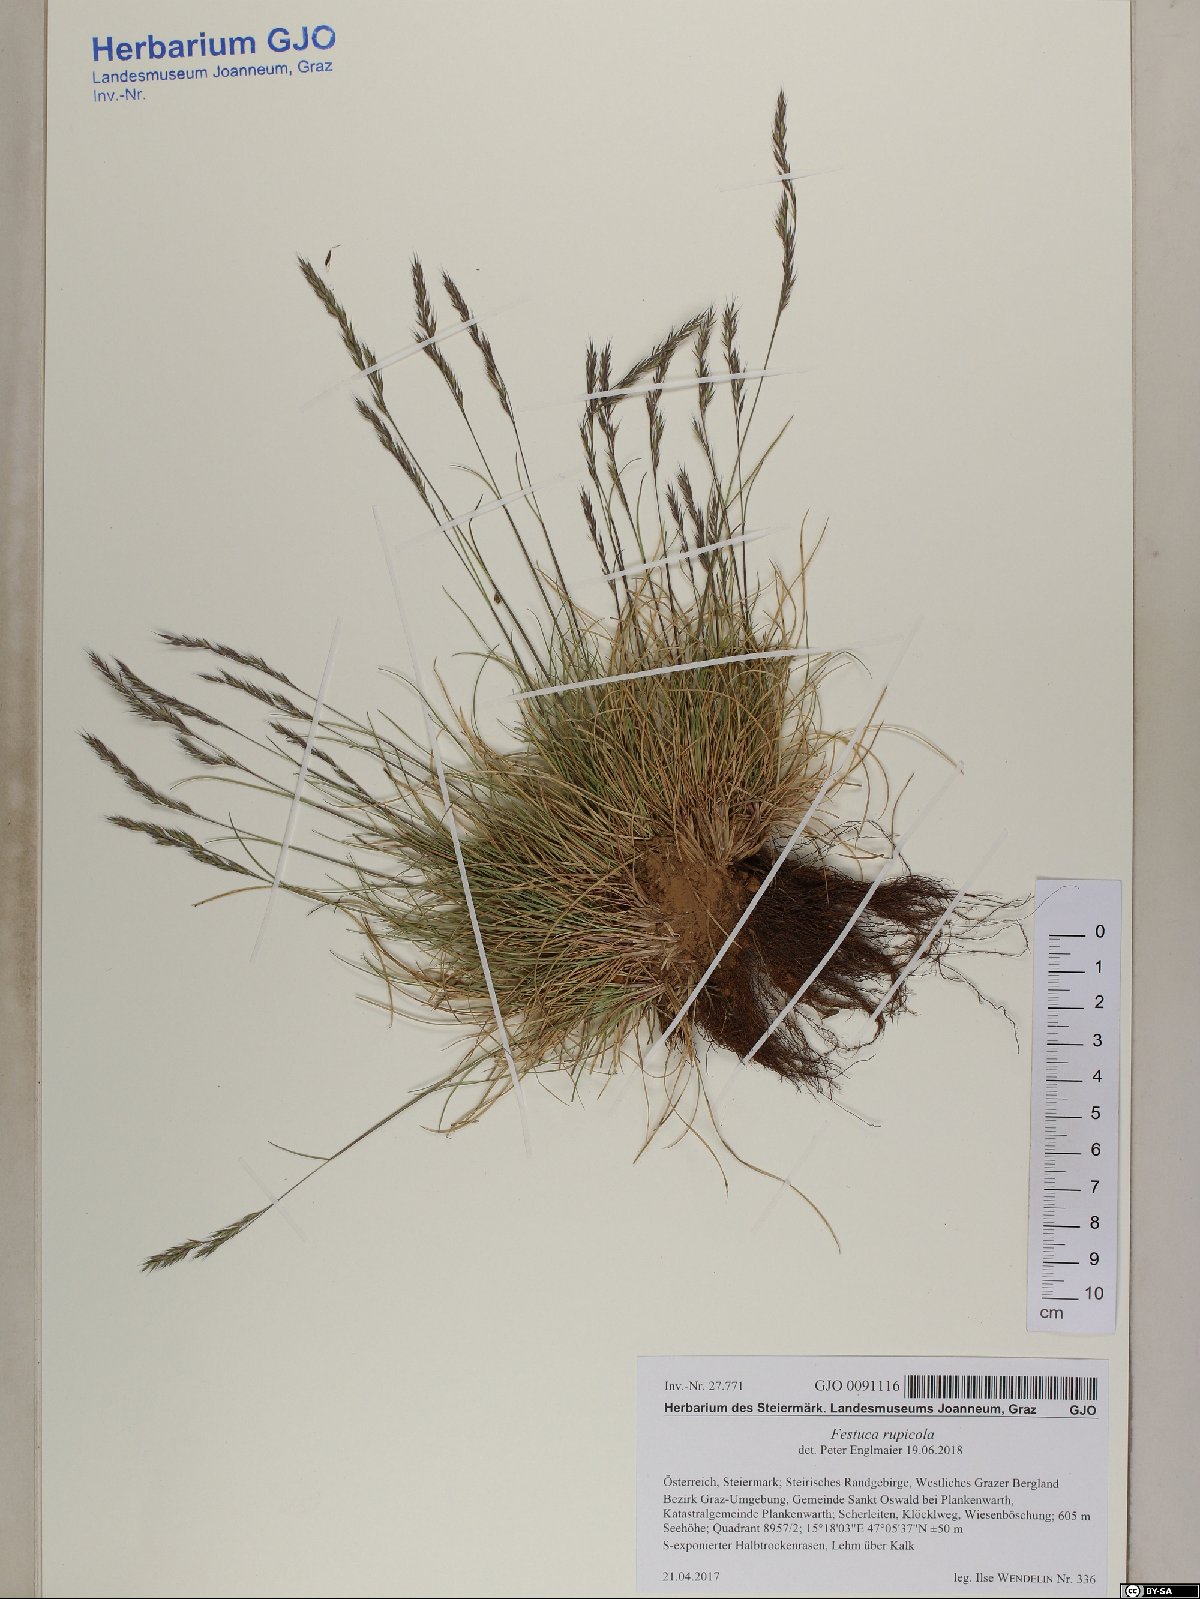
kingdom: Plantae
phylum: Tracheophyta
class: Magnoliopsida
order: Ericales
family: Primulaceae
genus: Cyclamen
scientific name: Cyclamen purpurascens
